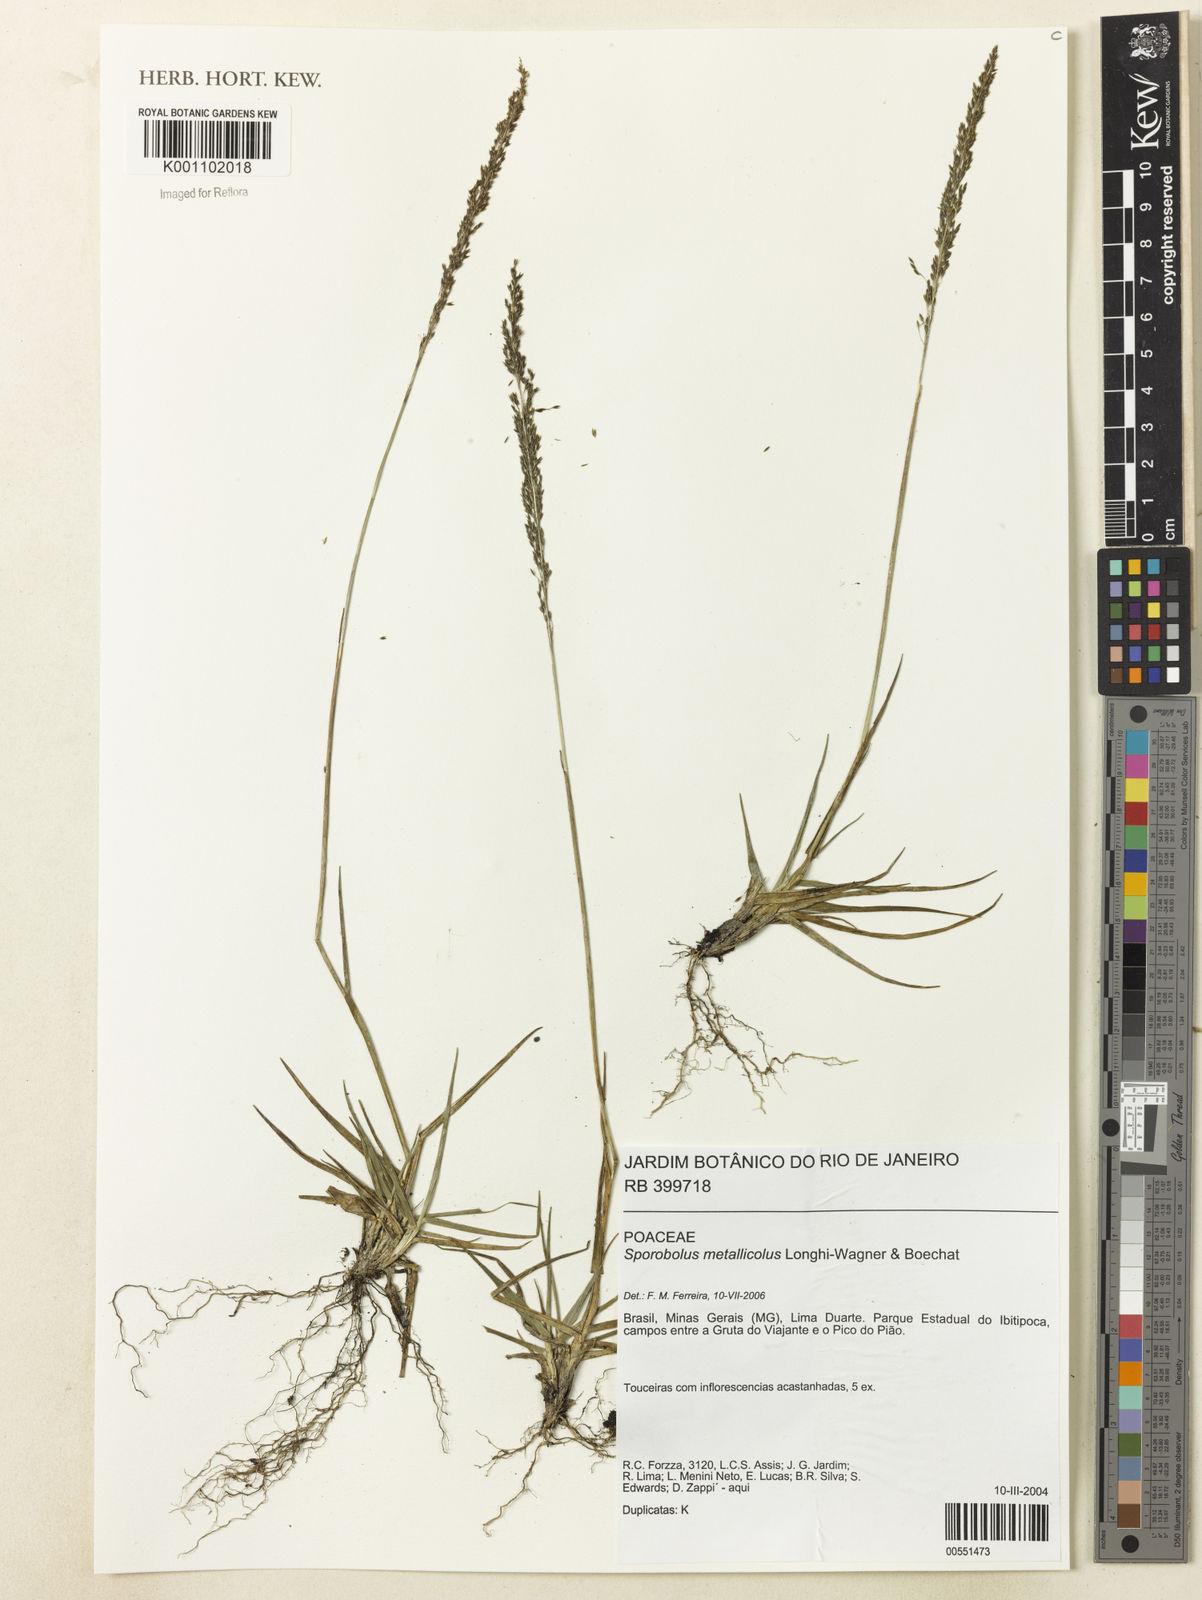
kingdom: Plantae
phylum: Tracheophyta
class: Liliopsida
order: Poales
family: Poaceae
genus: Sporobolus
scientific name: Sporobolus metallicola
